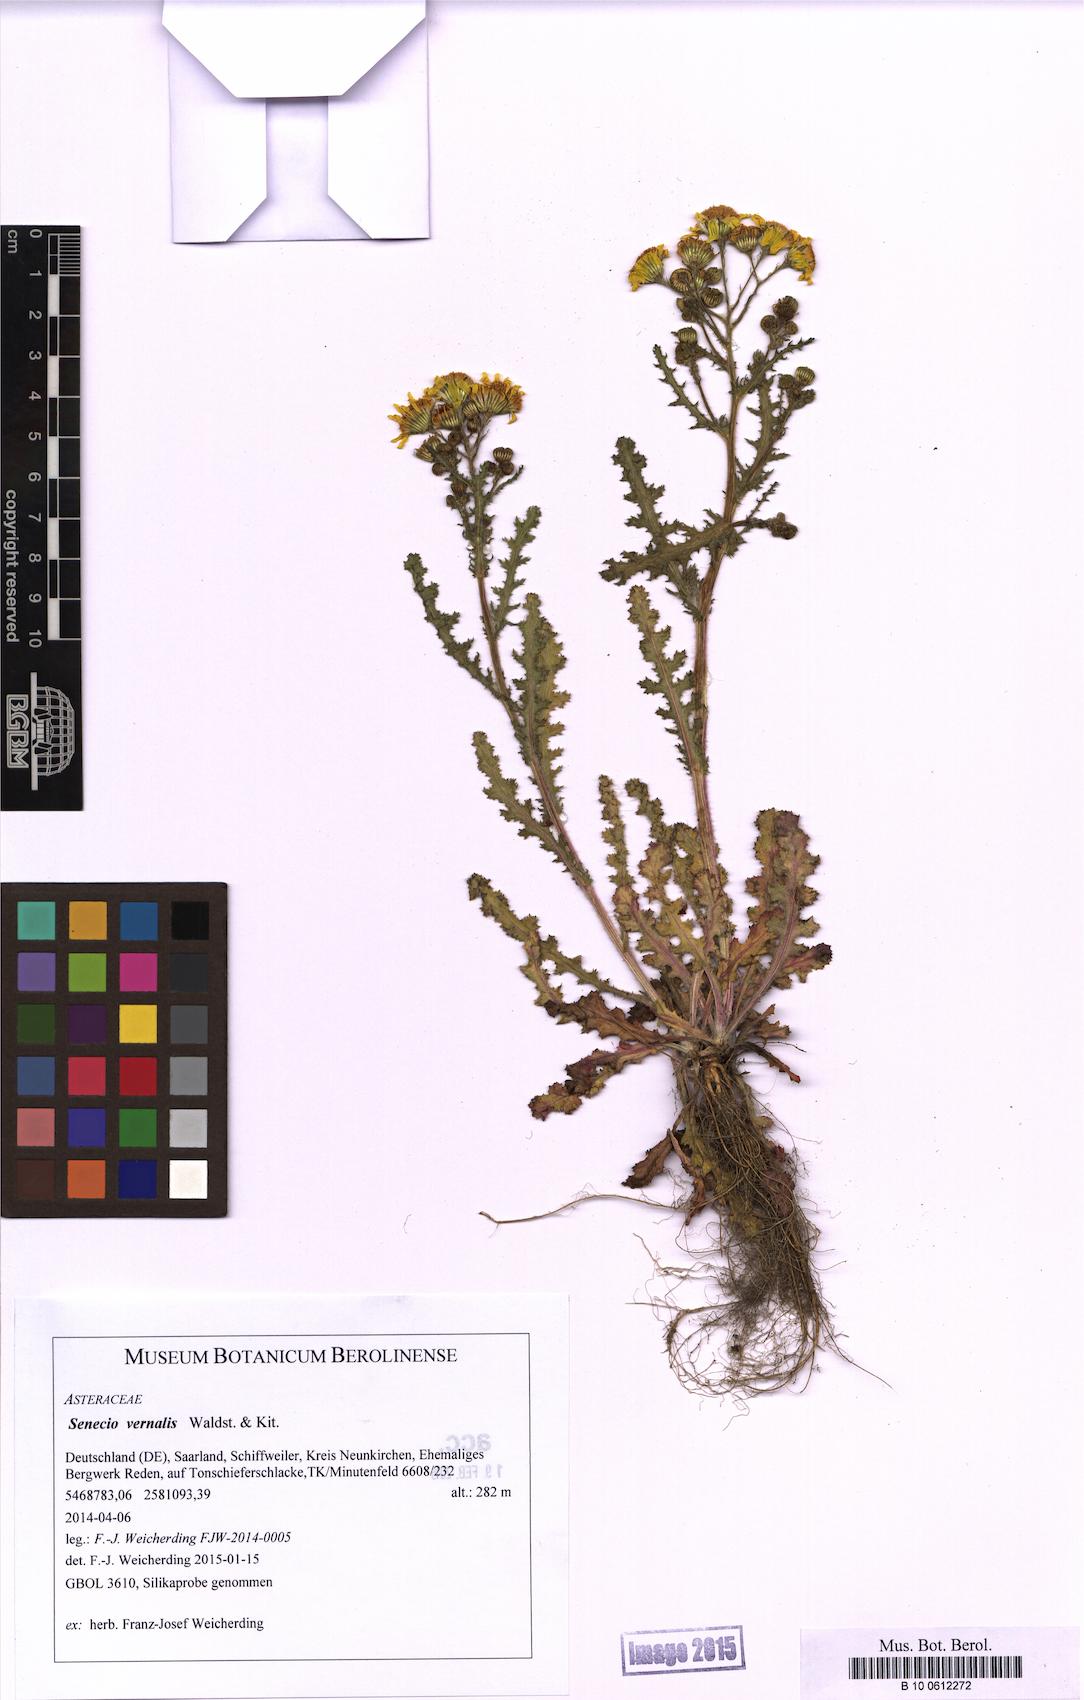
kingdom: Plantae
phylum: Tracheophyta
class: Magnoliopsida
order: Asterales
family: Asteraceae
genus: Senecio
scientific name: Senecio vernalis
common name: Eastern groundsel
